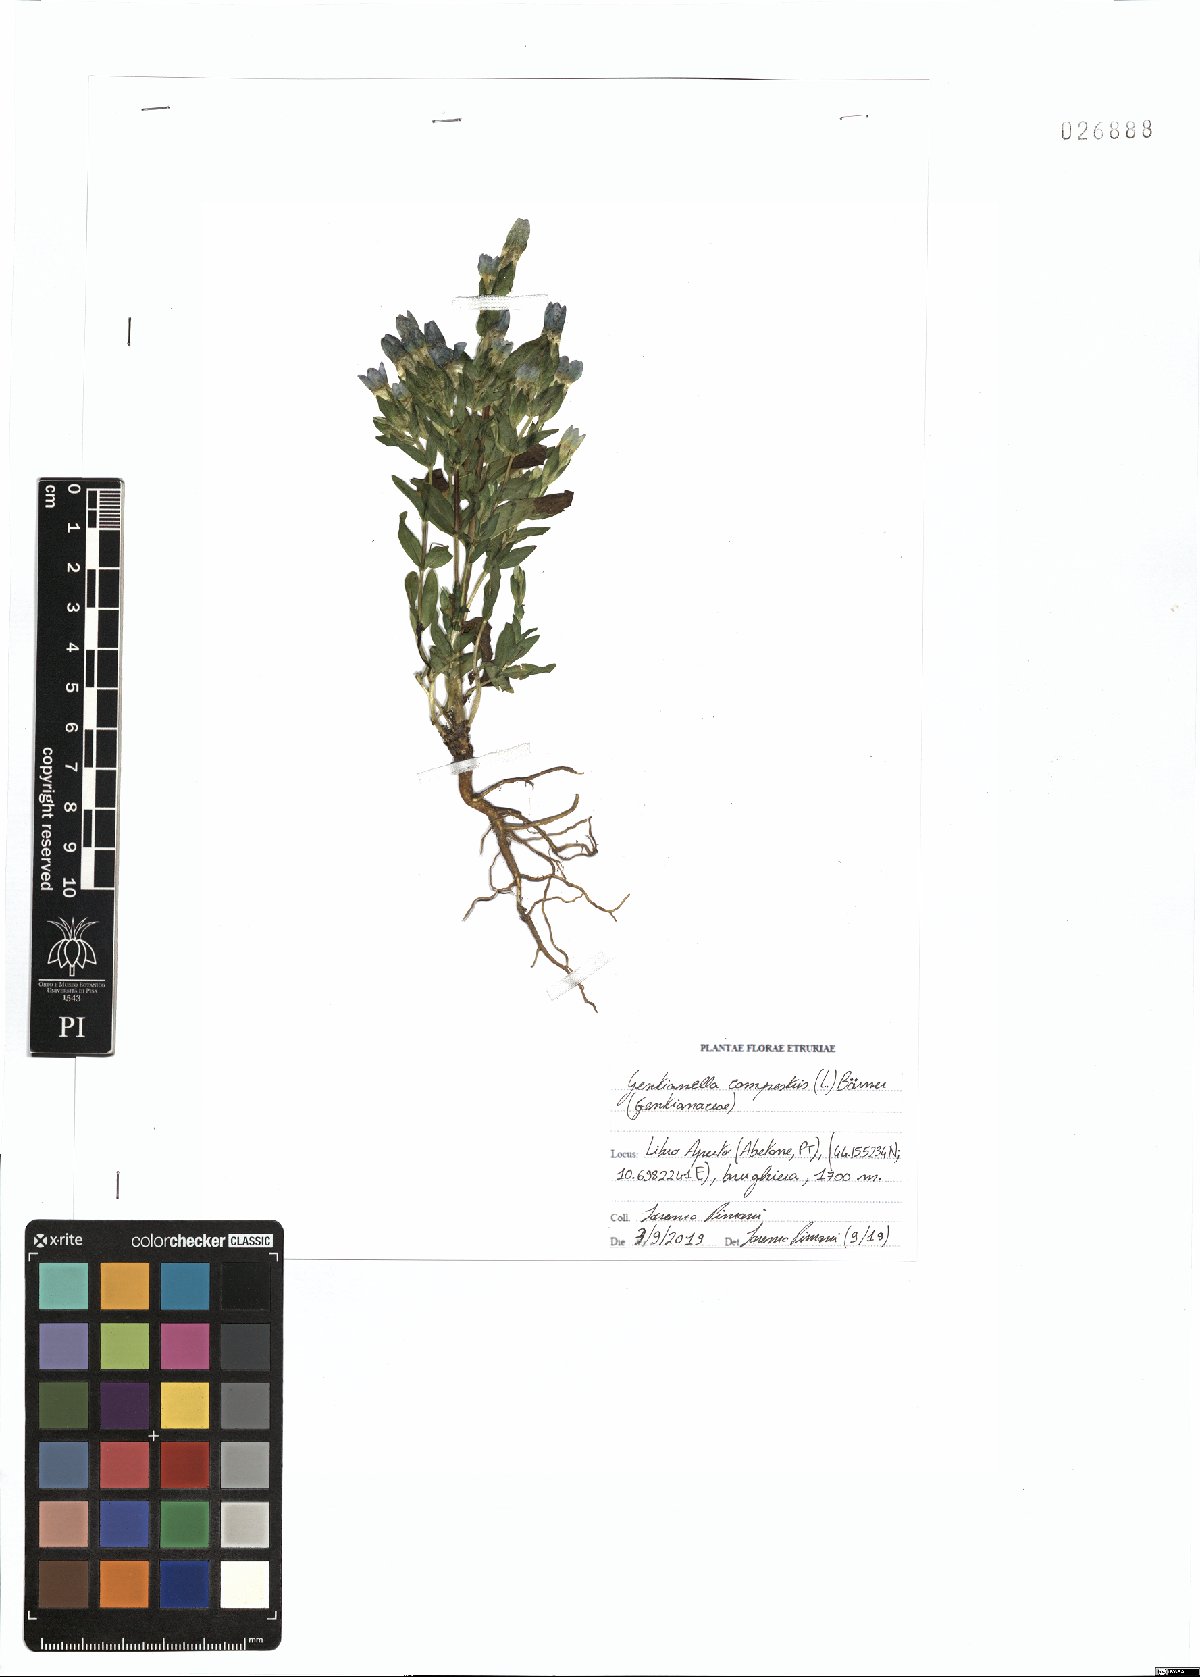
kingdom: Plantae
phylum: Tracheophyta
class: Magnoliopsida
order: Gentianales
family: Gentianaceae
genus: Gentianella
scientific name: Gentianella campestris
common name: Field gentian
